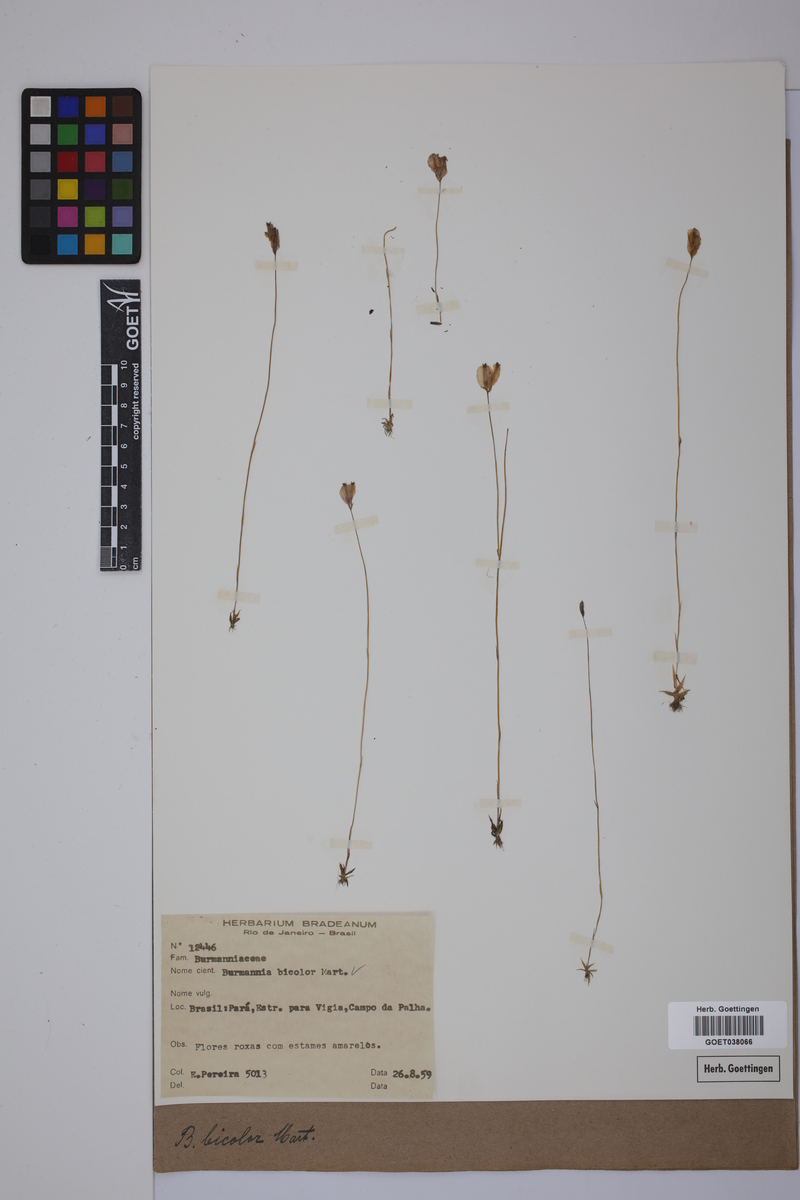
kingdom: Plantae
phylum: Tracheophyta
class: Liliopsida
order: Dioscoreales
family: Burmanniaceae
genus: Burmannia
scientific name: Burmannia bicolor
